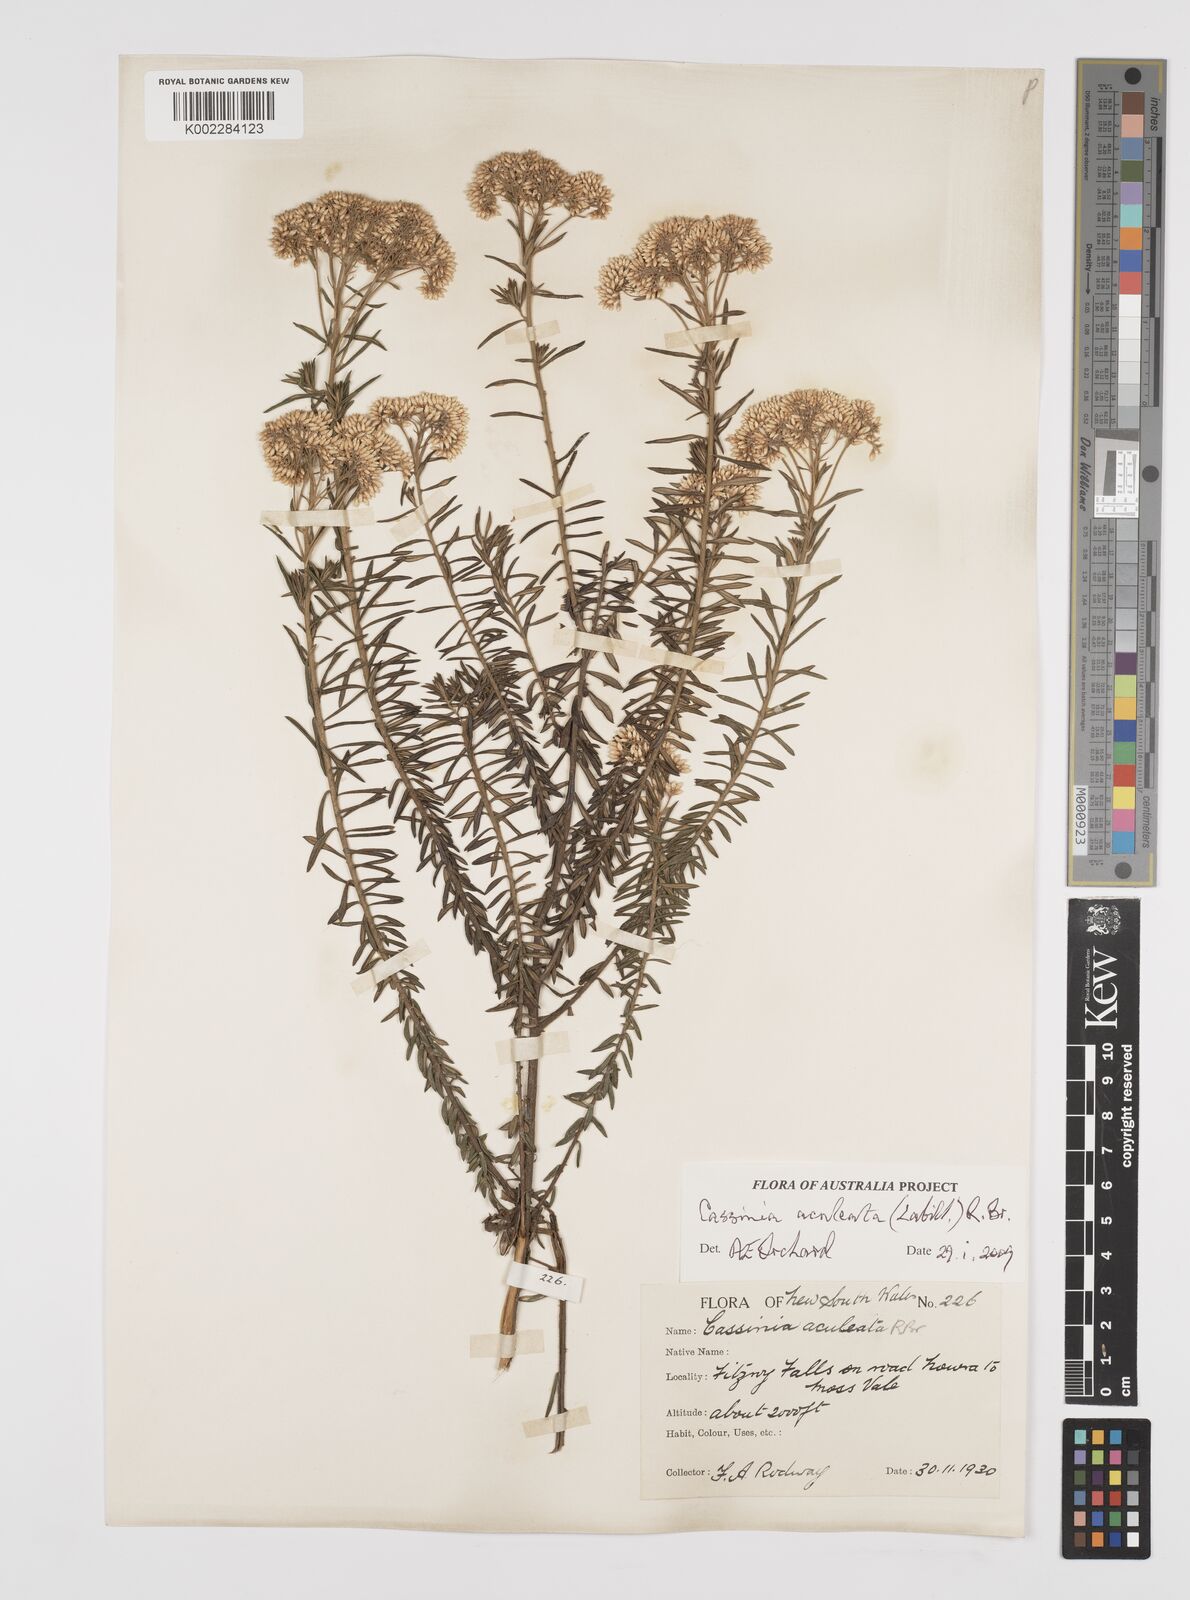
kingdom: Plantae
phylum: Tracheophyta
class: Magnoliopsida
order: Asterales
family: Asteraceae
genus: Cassinia
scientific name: Cassinia aculeata
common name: Australian tauhinu
